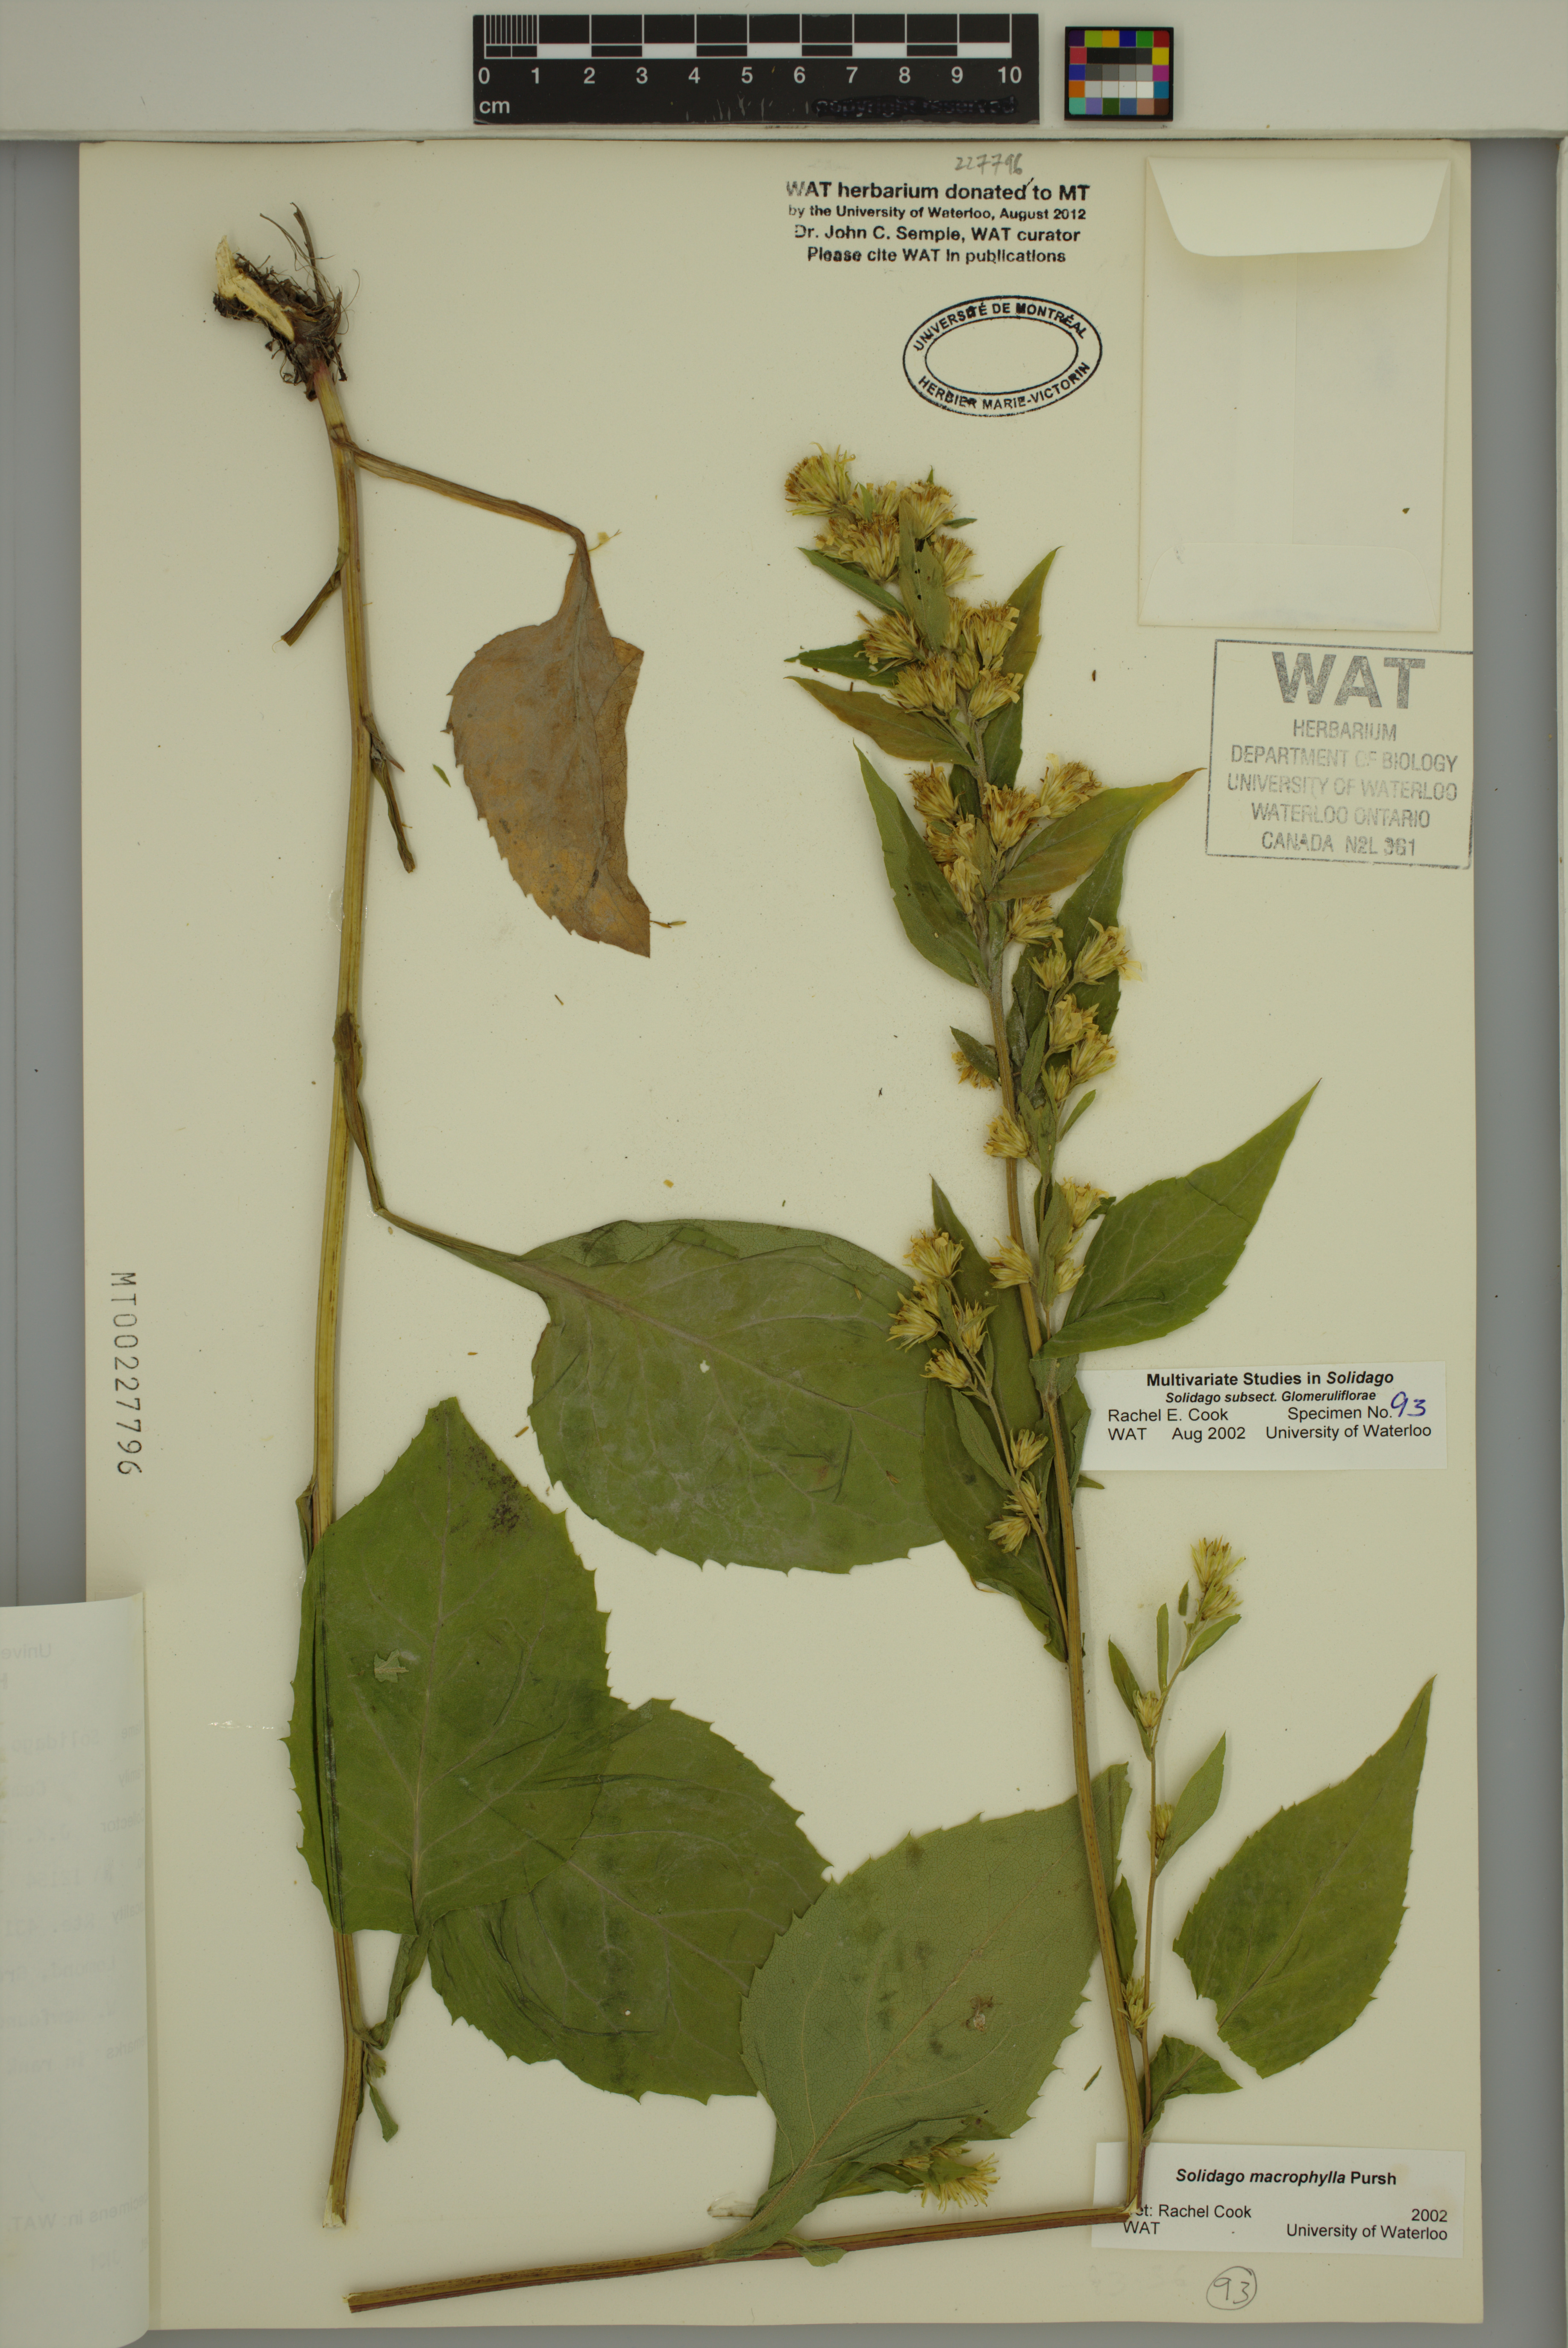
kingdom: Plantae
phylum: Tracheophyta
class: Magnoliopsida
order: Asterales
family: Asteraceae
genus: Solidago
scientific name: Solidago macrophylla
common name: Large-leaved goldenrod
